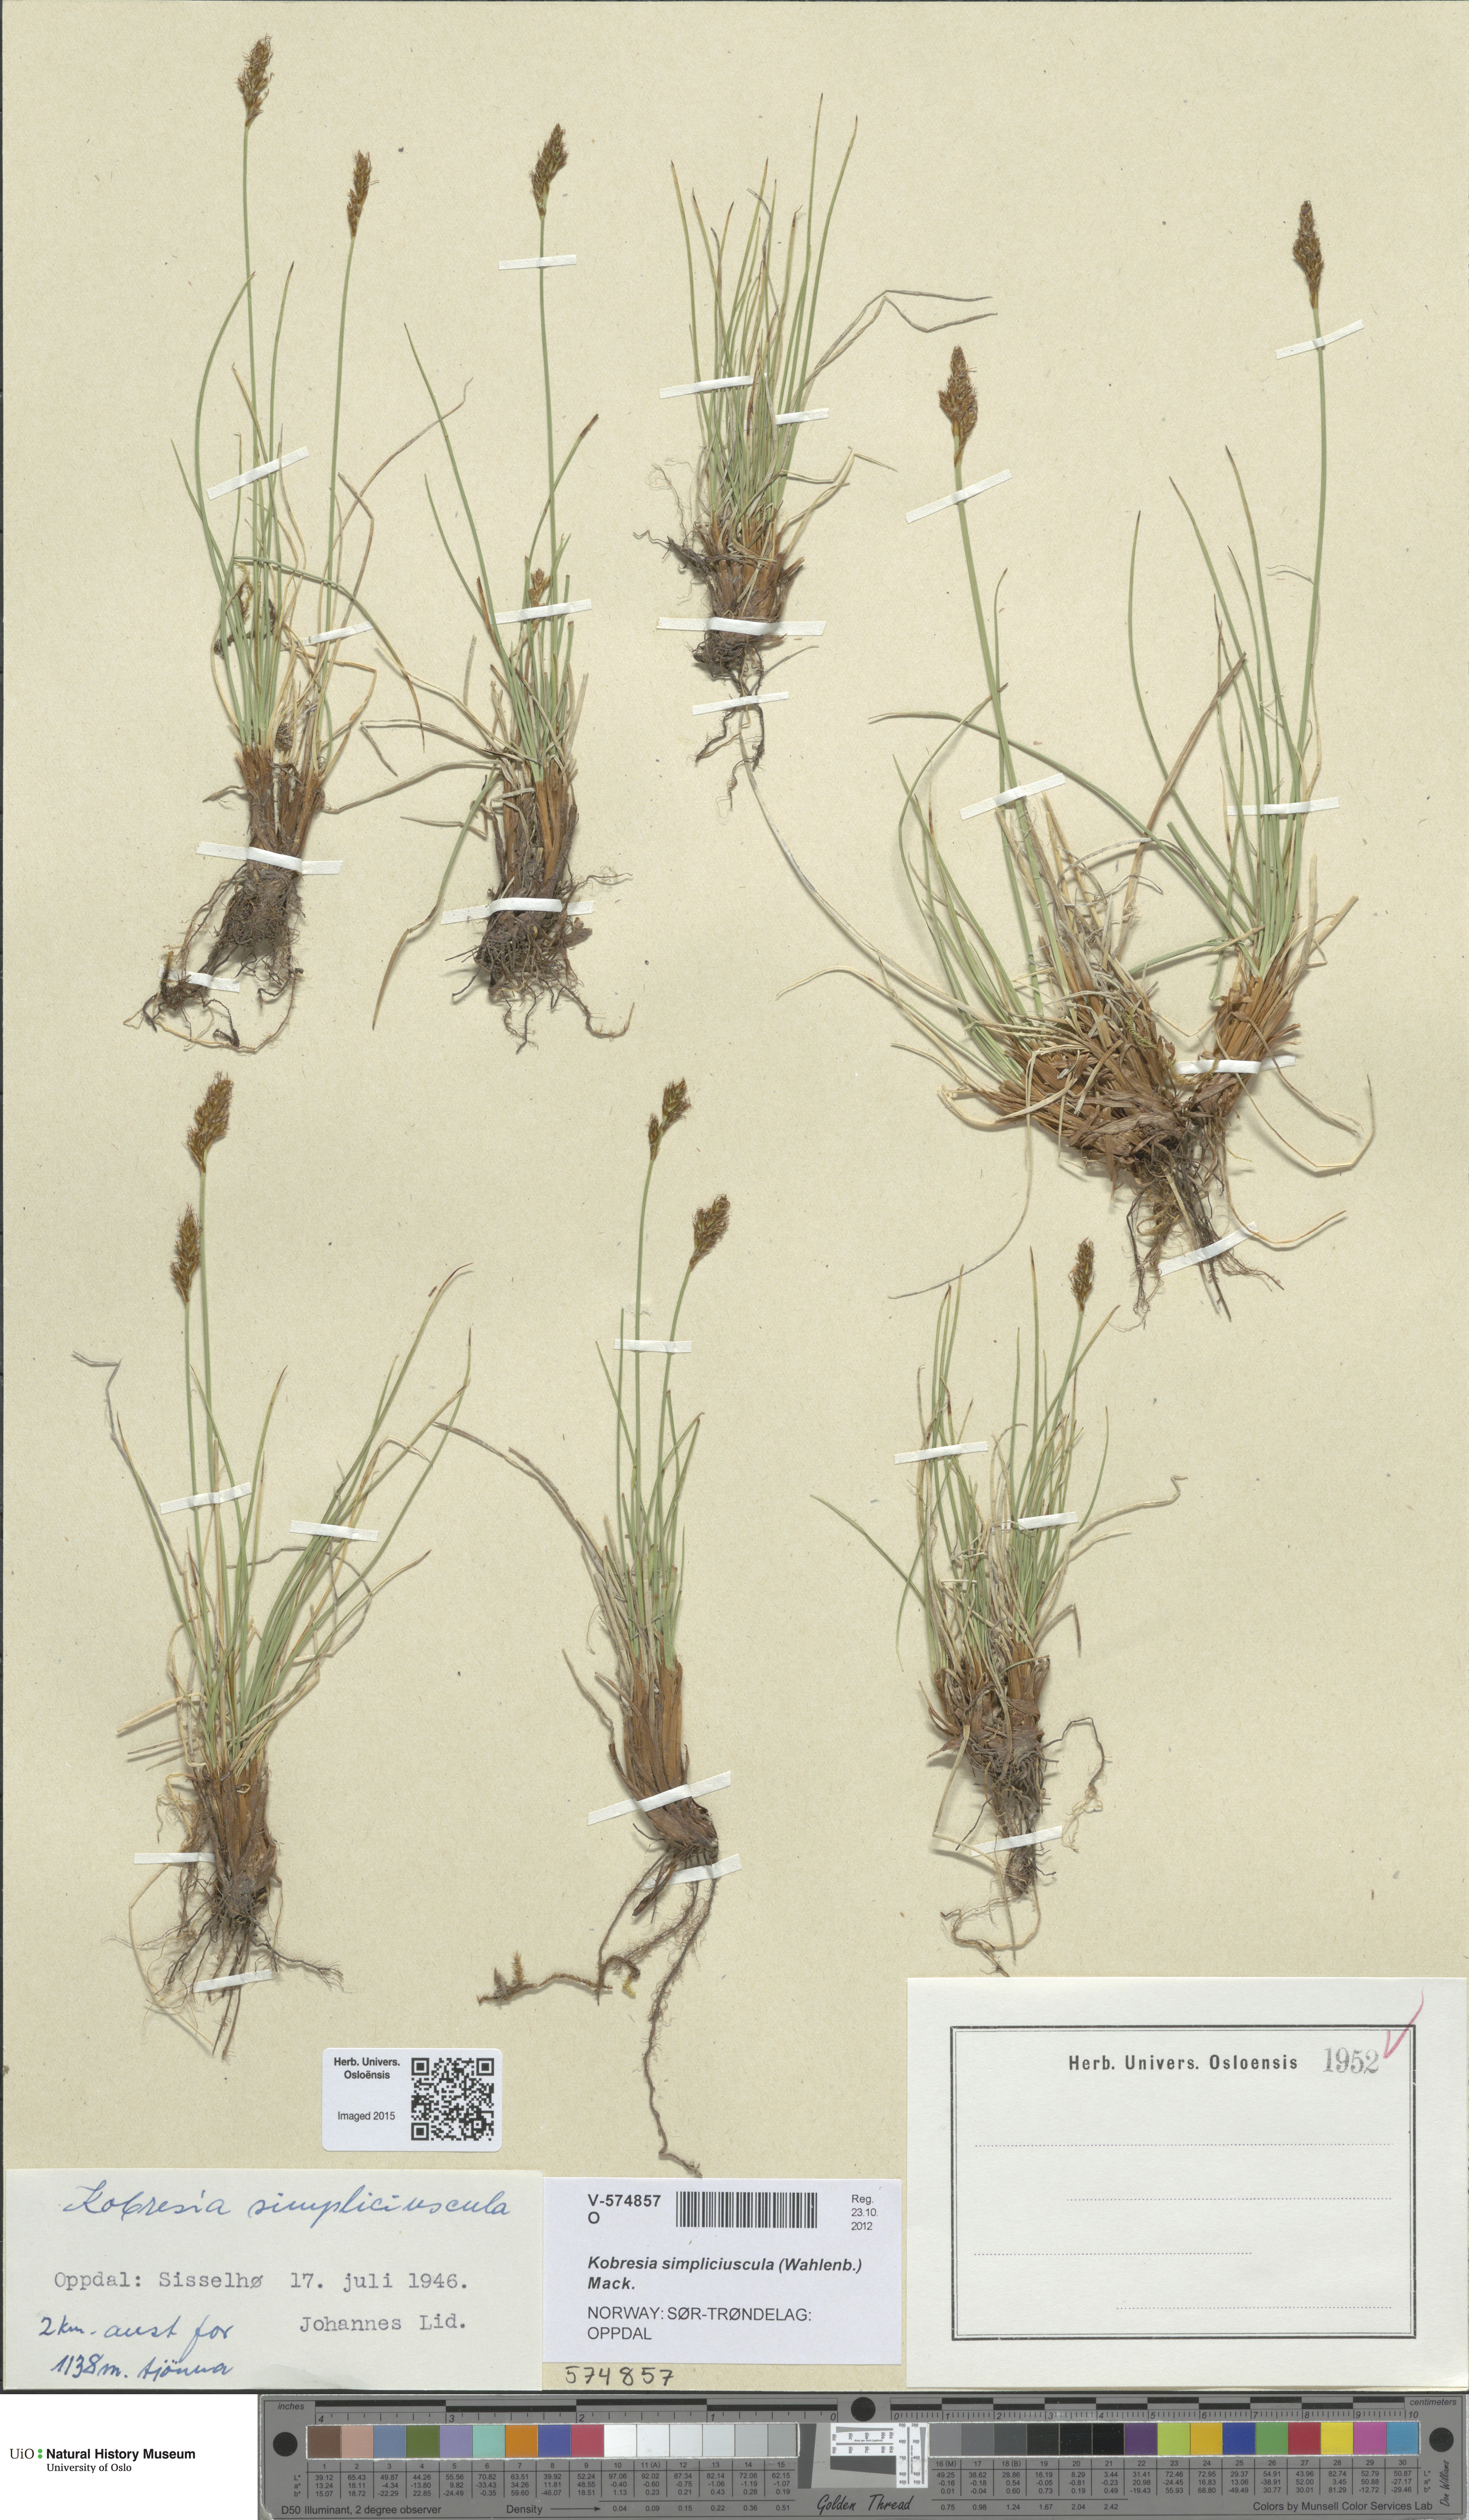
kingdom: Plantae
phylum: Tracheophyta
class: Liliopsida
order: Poales
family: Cyperaceae
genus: Carex
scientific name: Carex simpliciuscula
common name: Simple bog sedge
